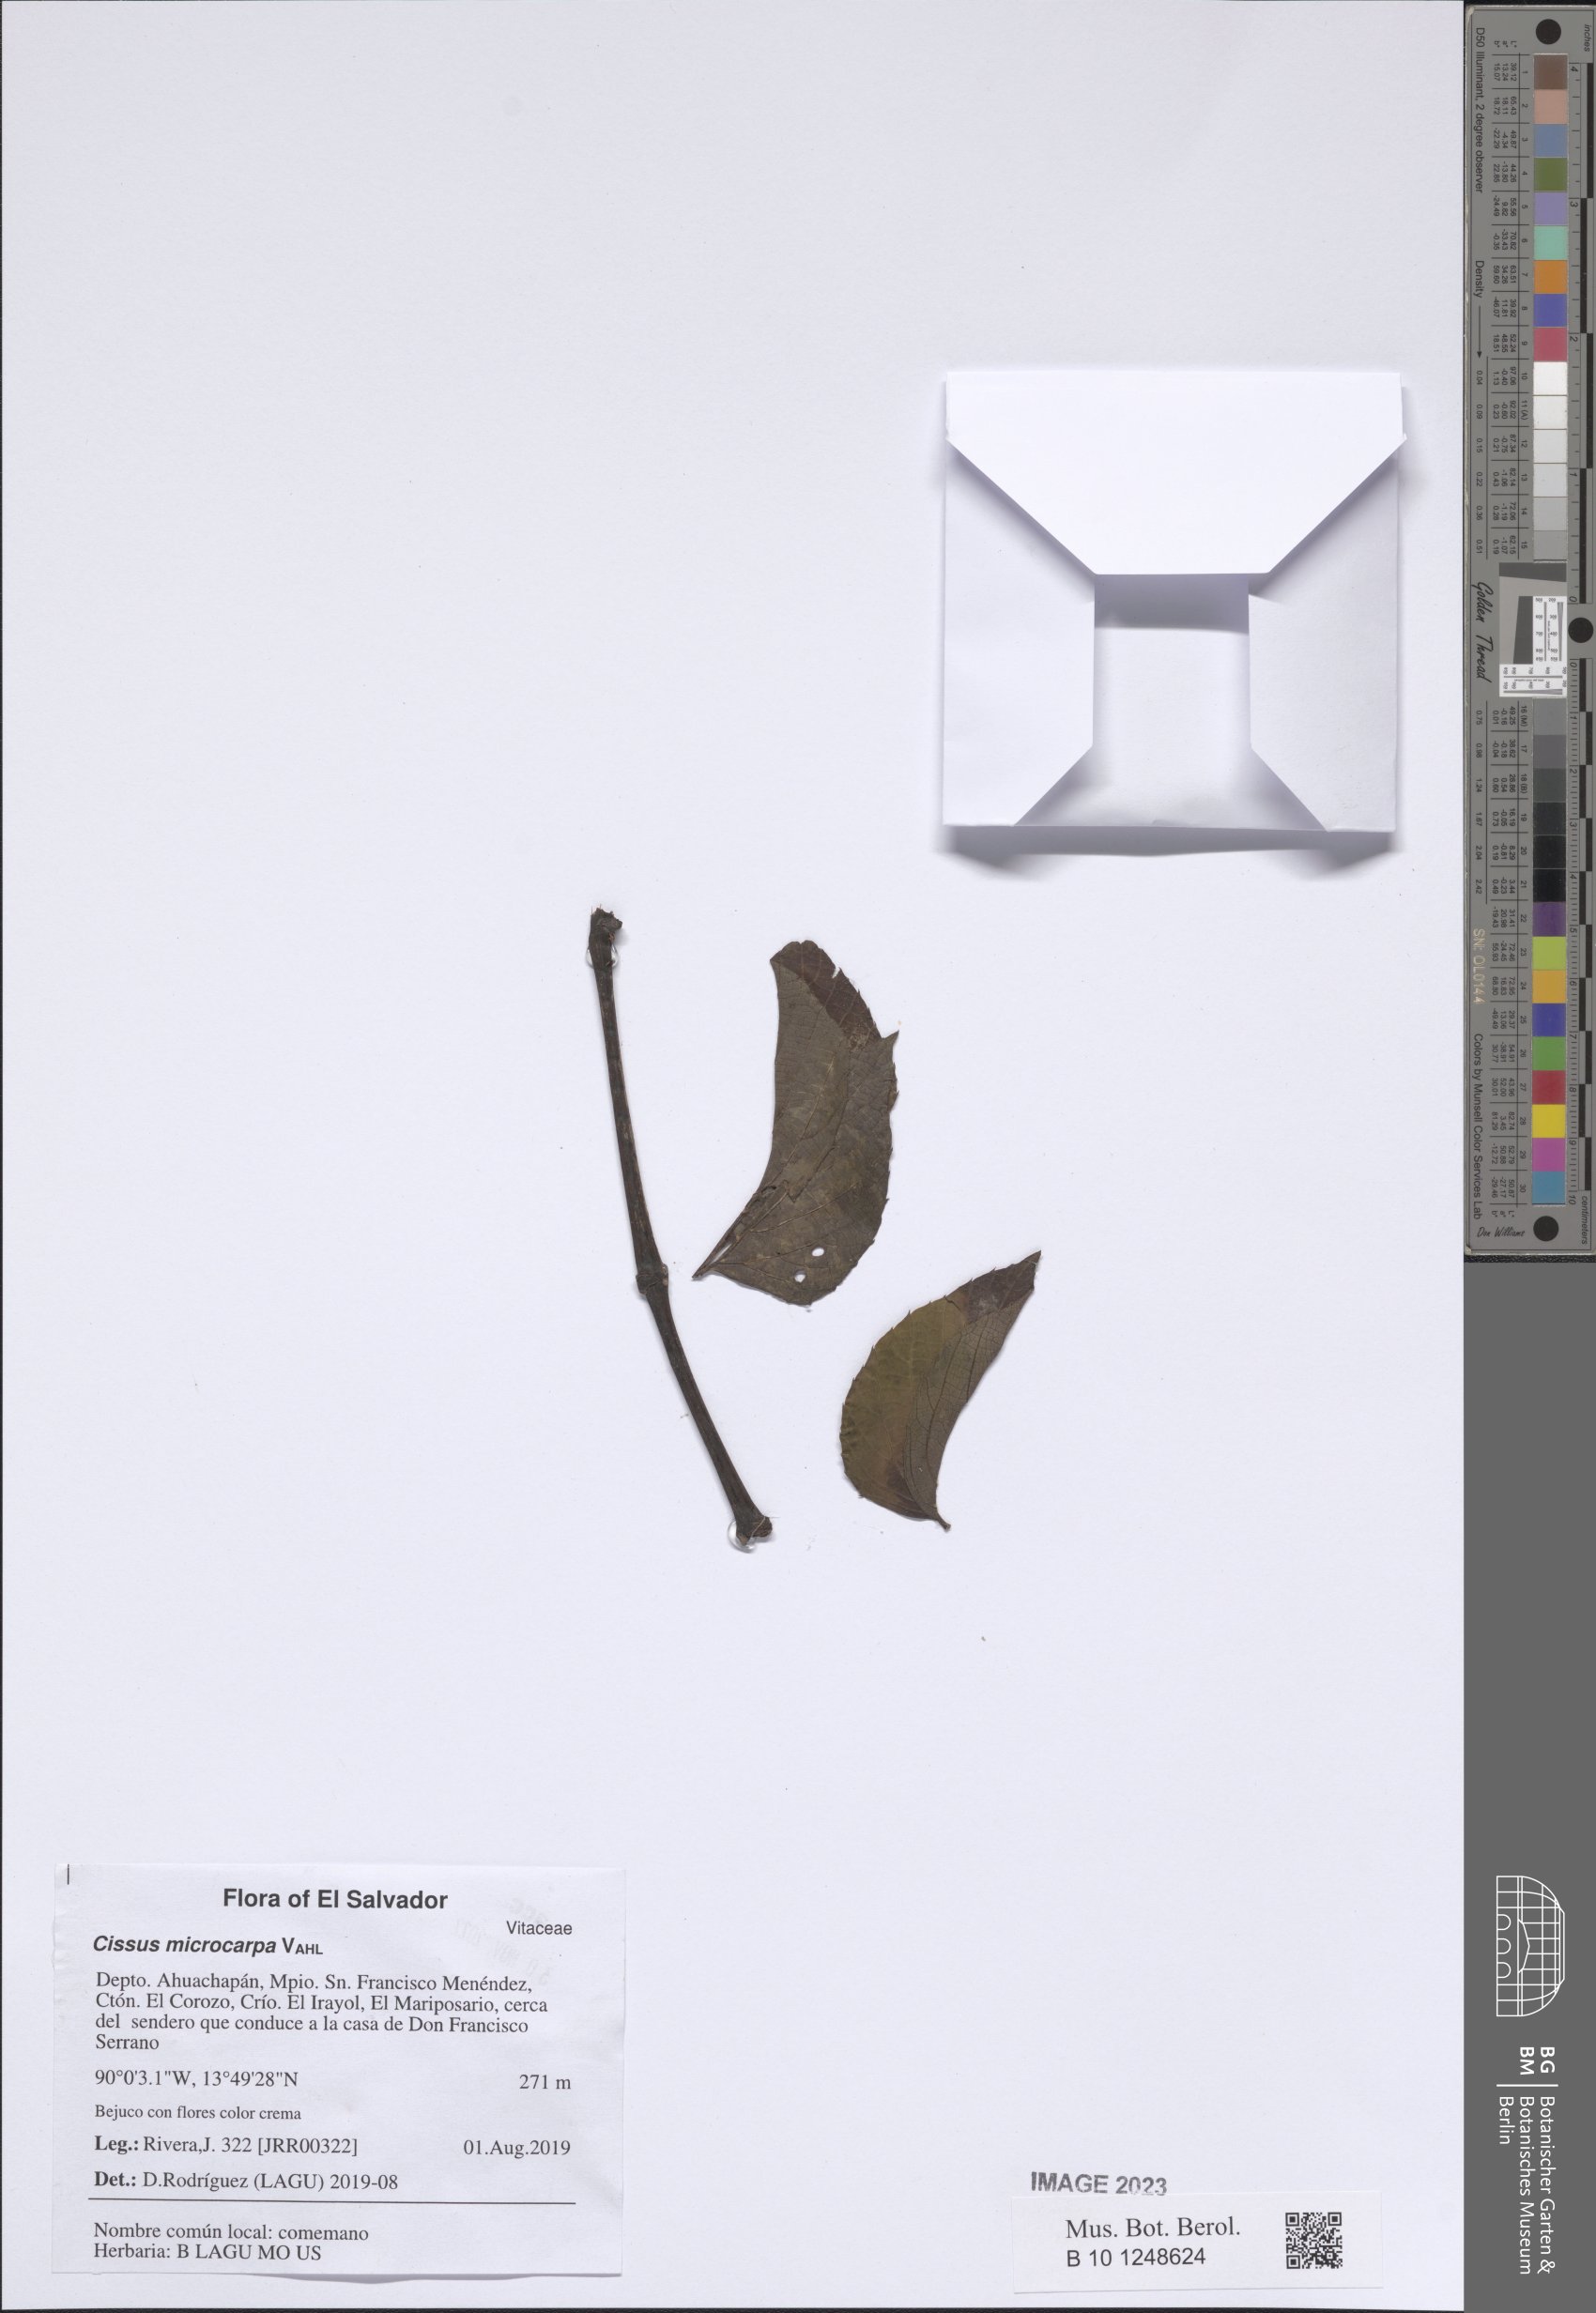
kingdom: Plantae
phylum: Tracheophyta
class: Magnoliopsida
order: Vitales
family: Vitaceae
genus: Cissus
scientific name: Cissus microcarpa
